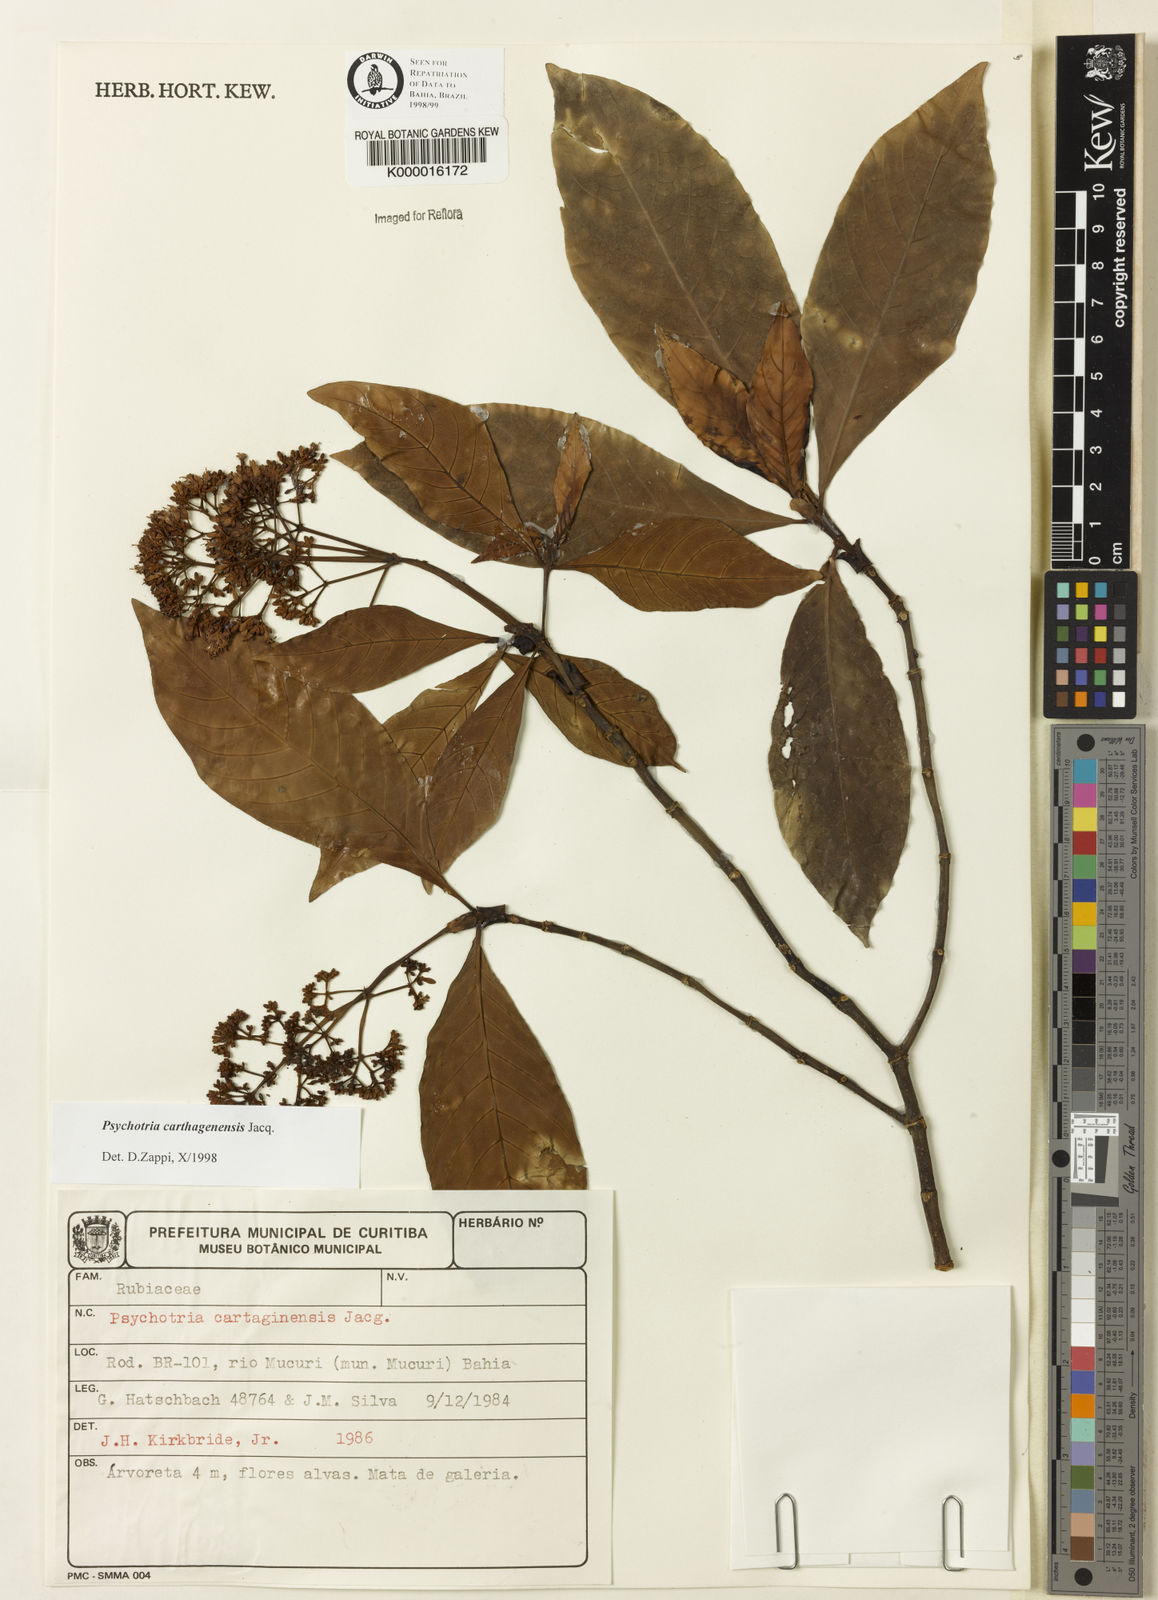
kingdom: Plantae
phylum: Tracheophyta
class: Magnoliopsida
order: Gentianales
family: Rubiaceae
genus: Psychotria
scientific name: Psychotria carthagenensis
